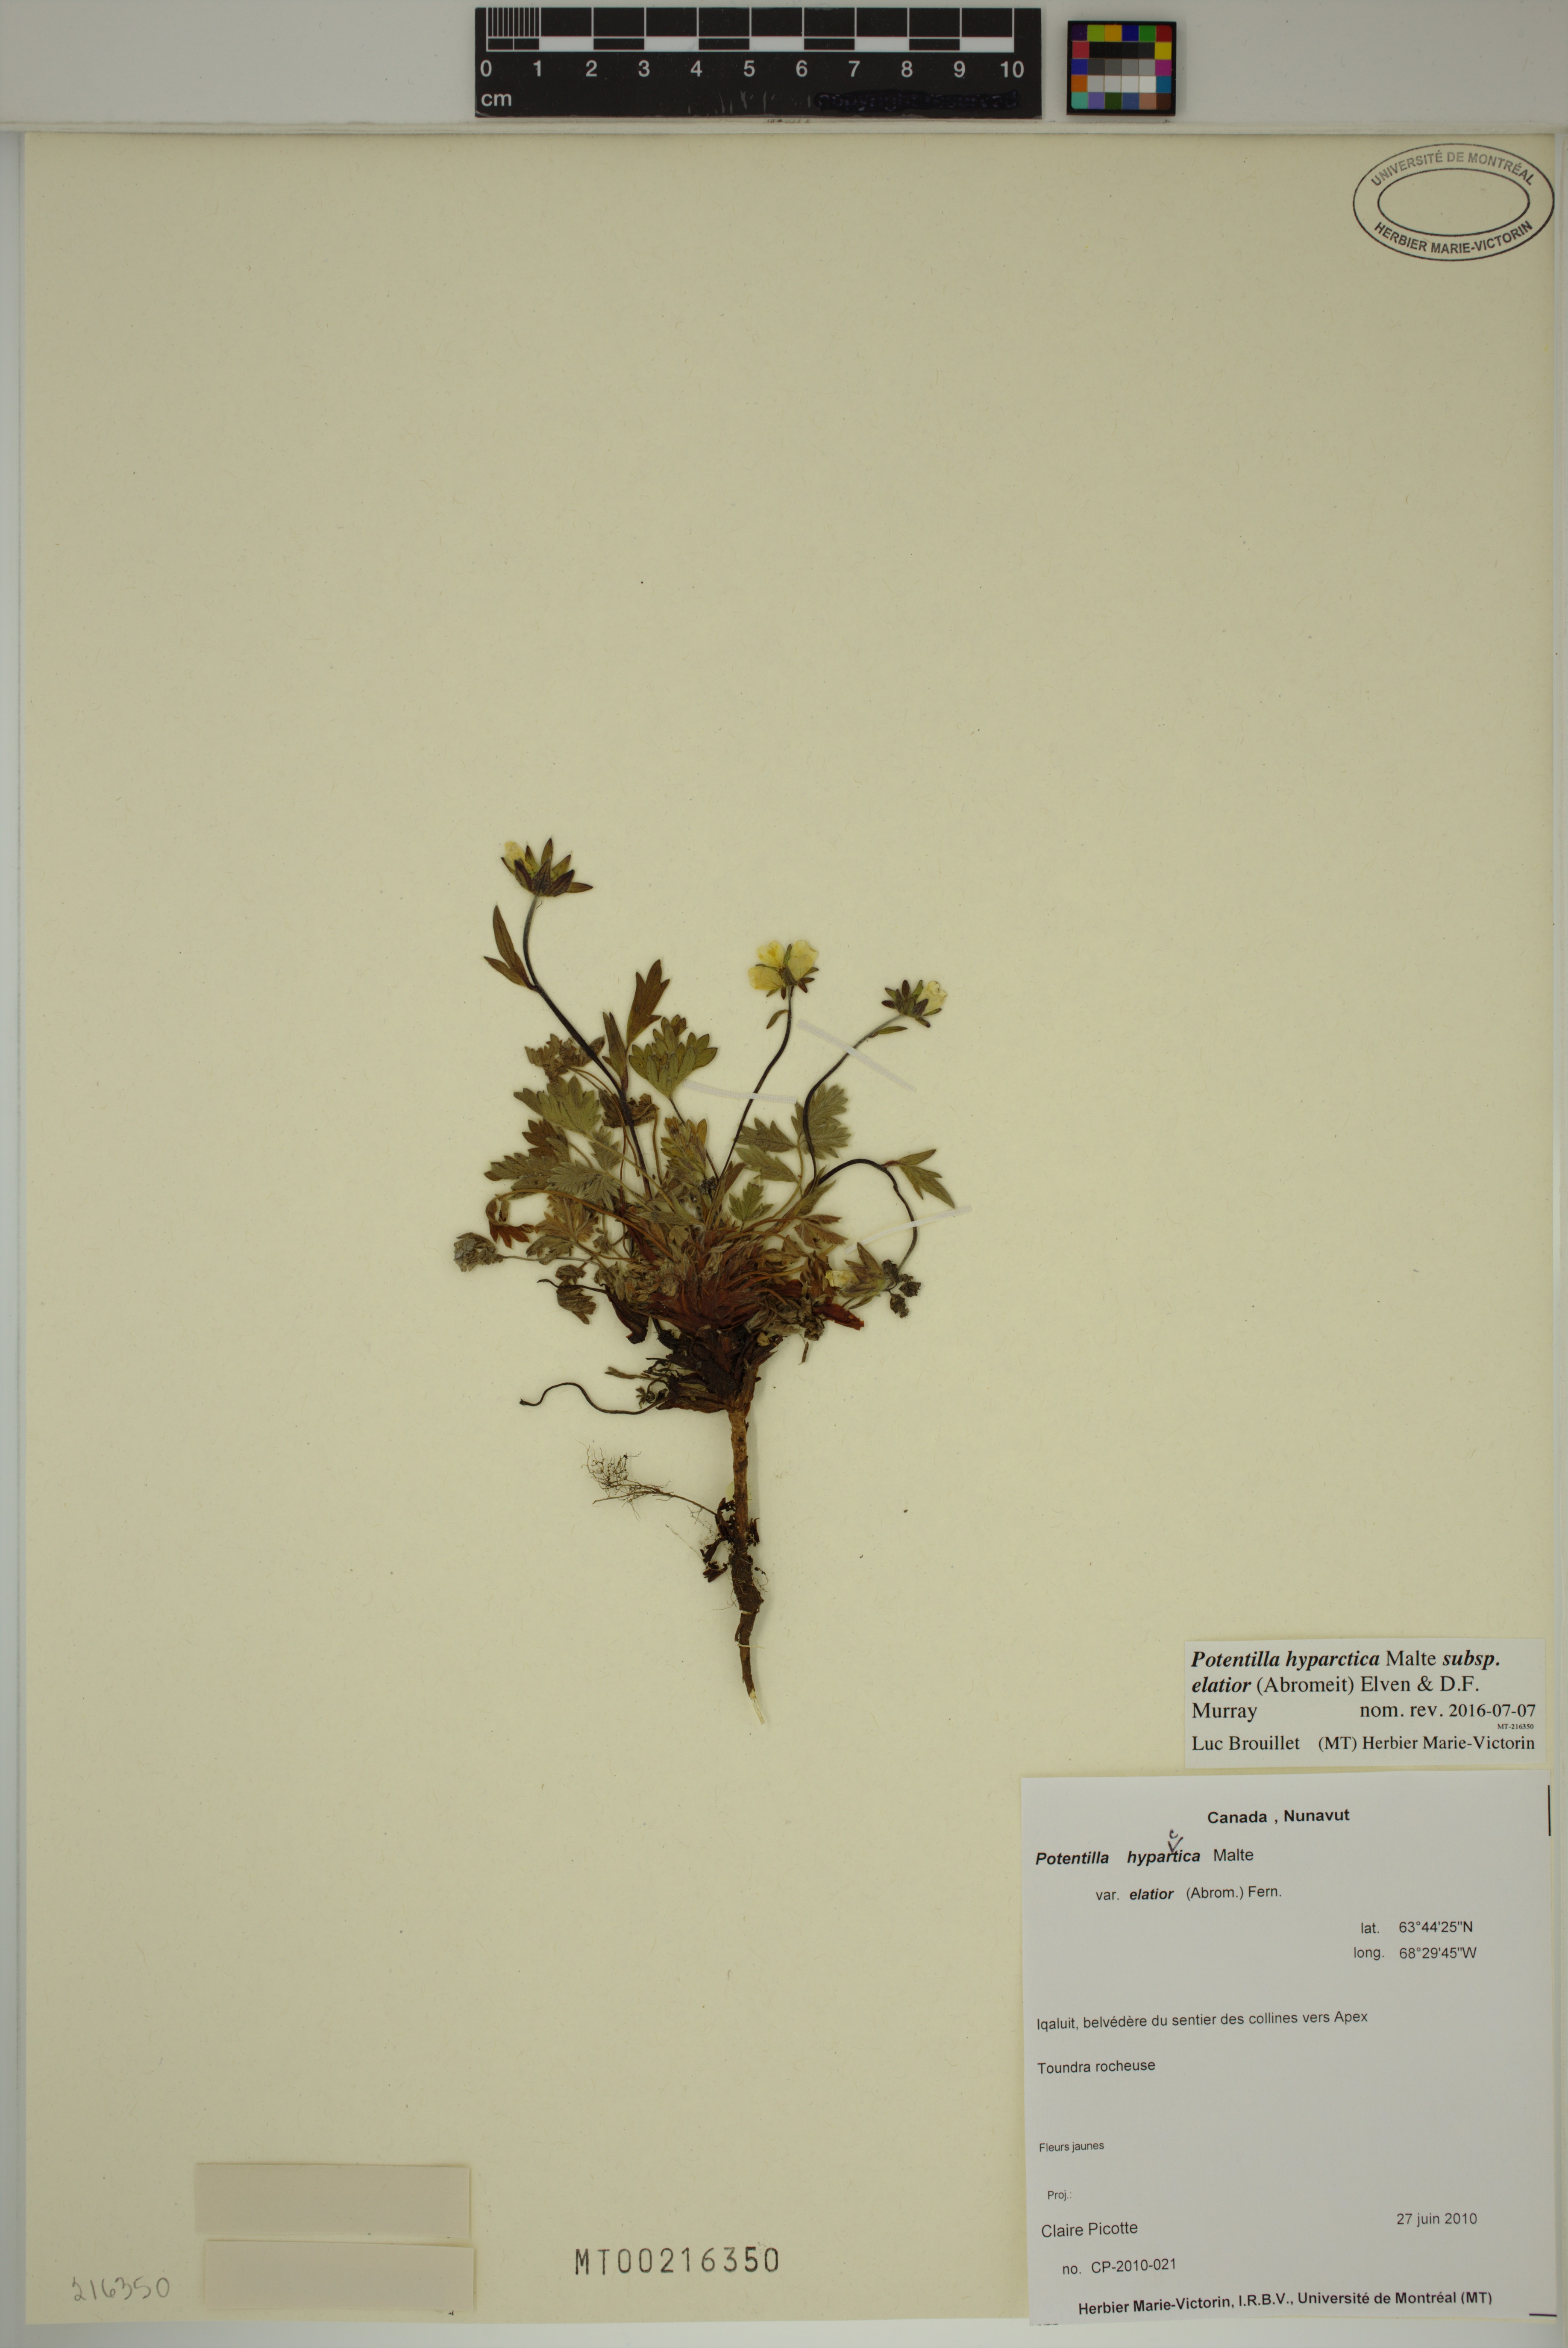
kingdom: Plantae
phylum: Tracheophyta
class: Magnoliopsida
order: Rosales
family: Rosaceae
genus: Potentilla
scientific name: Potentilla hyparctica
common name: Arctic cinquefoil
